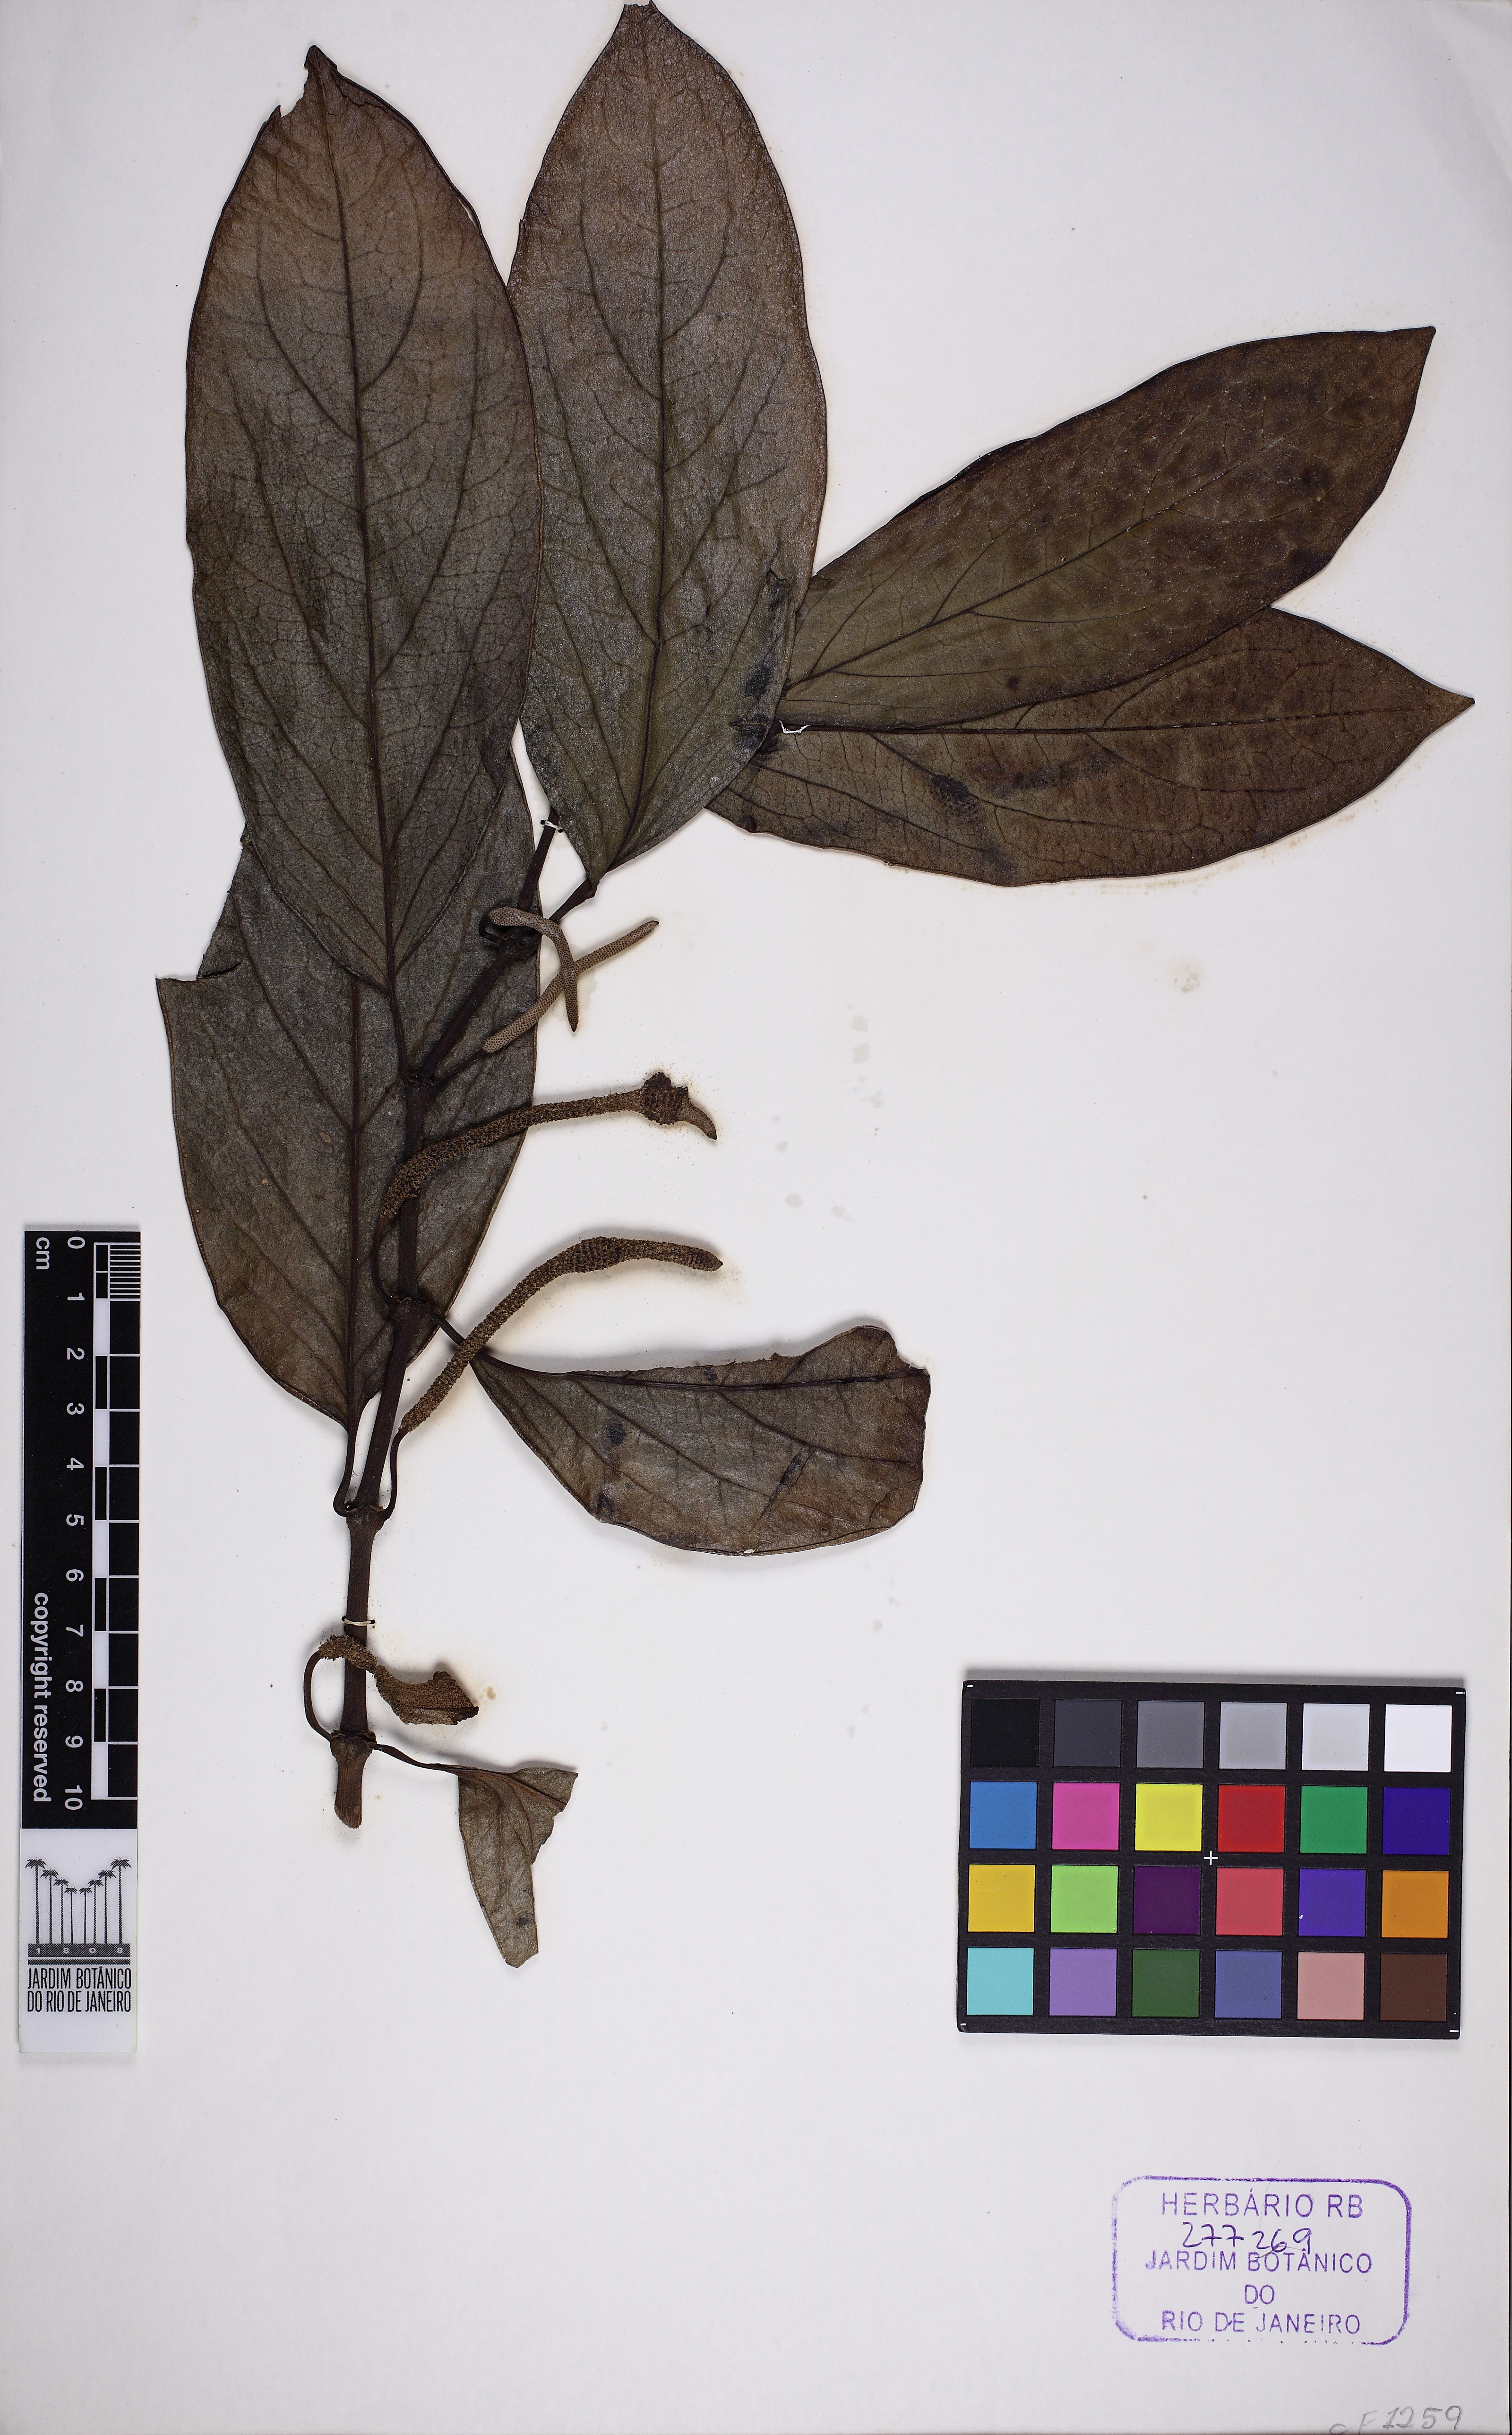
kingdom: Plantae
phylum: Tracheophyta
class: Magnoliopsida
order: Piperales
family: Piperaceae
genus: Piper
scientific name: Piper divaricatum
